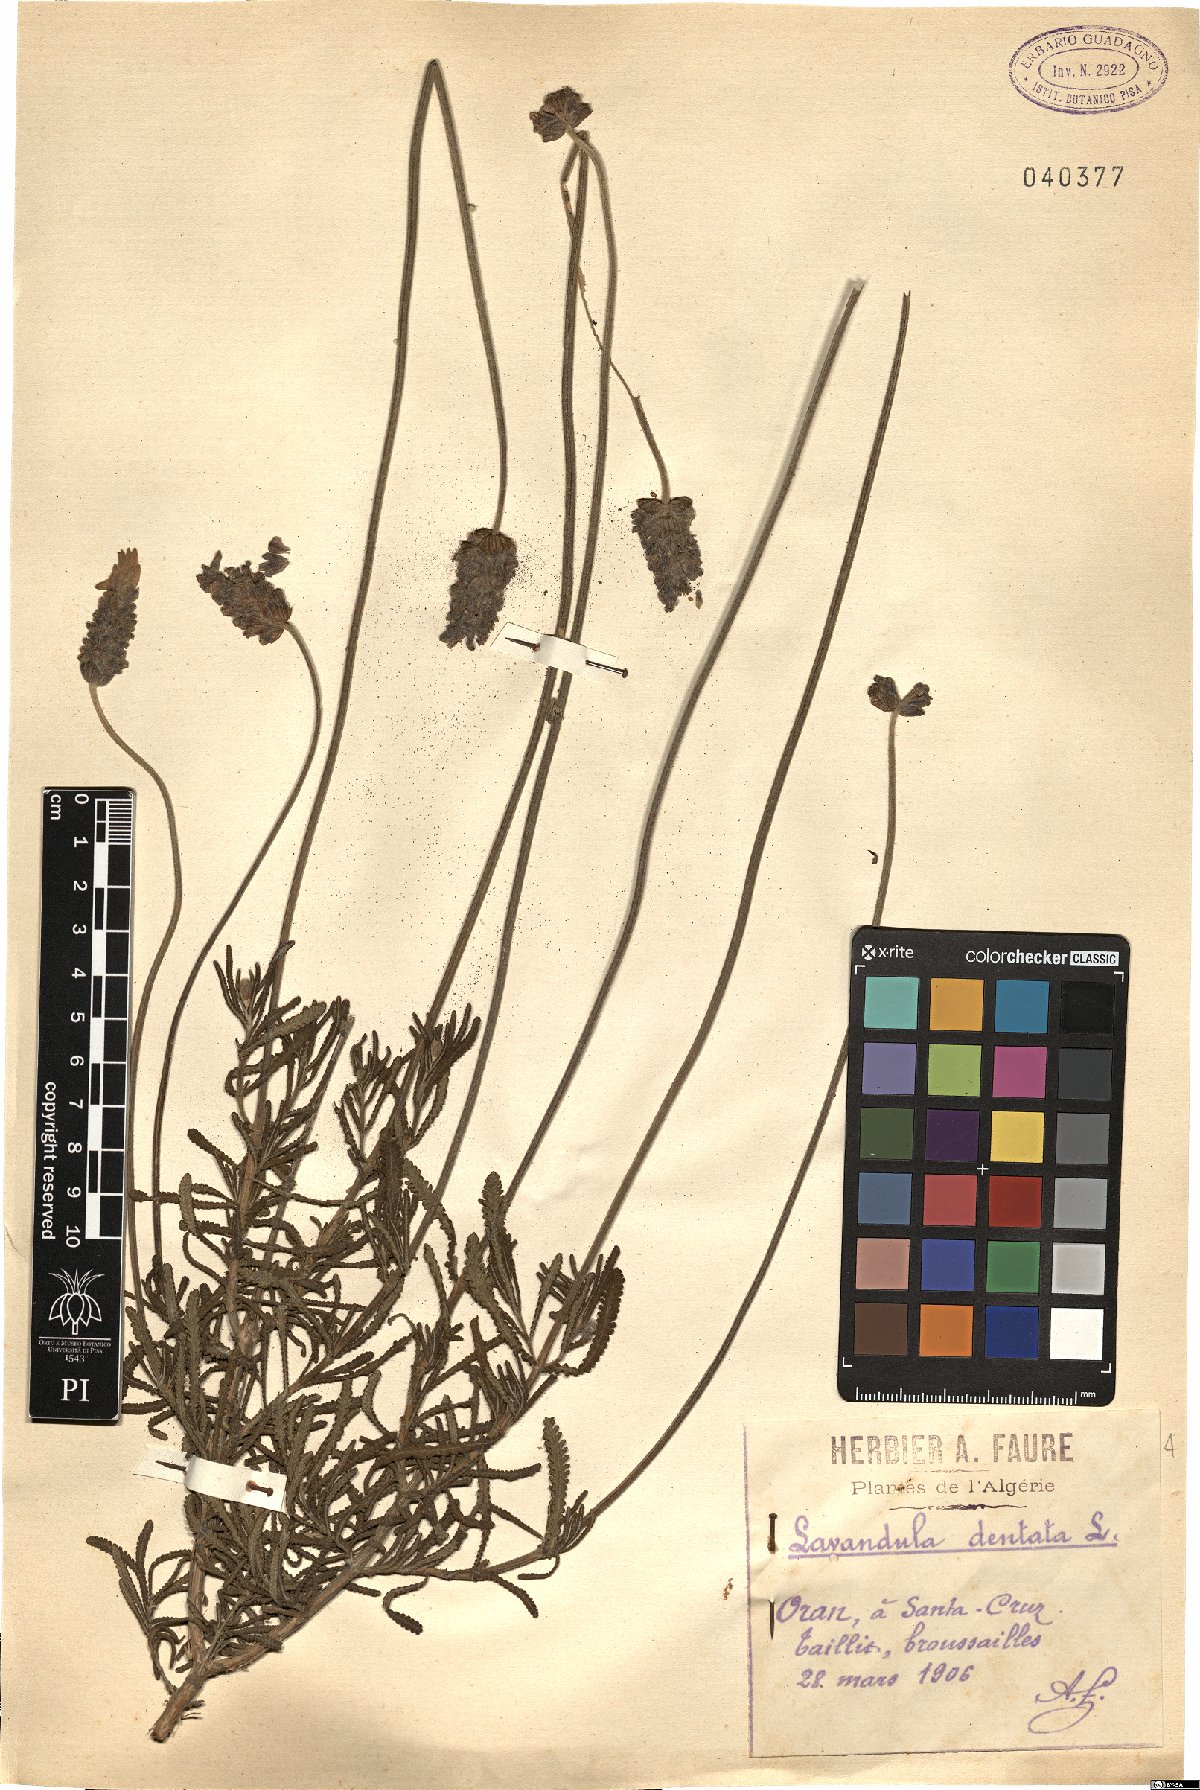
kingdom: Plantae
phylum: Tracheophyta
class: Magnoliopsida
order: Lamiales
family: Lamiaceae
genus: Lavandula
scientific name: Lavandula dentata
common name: French lavender
